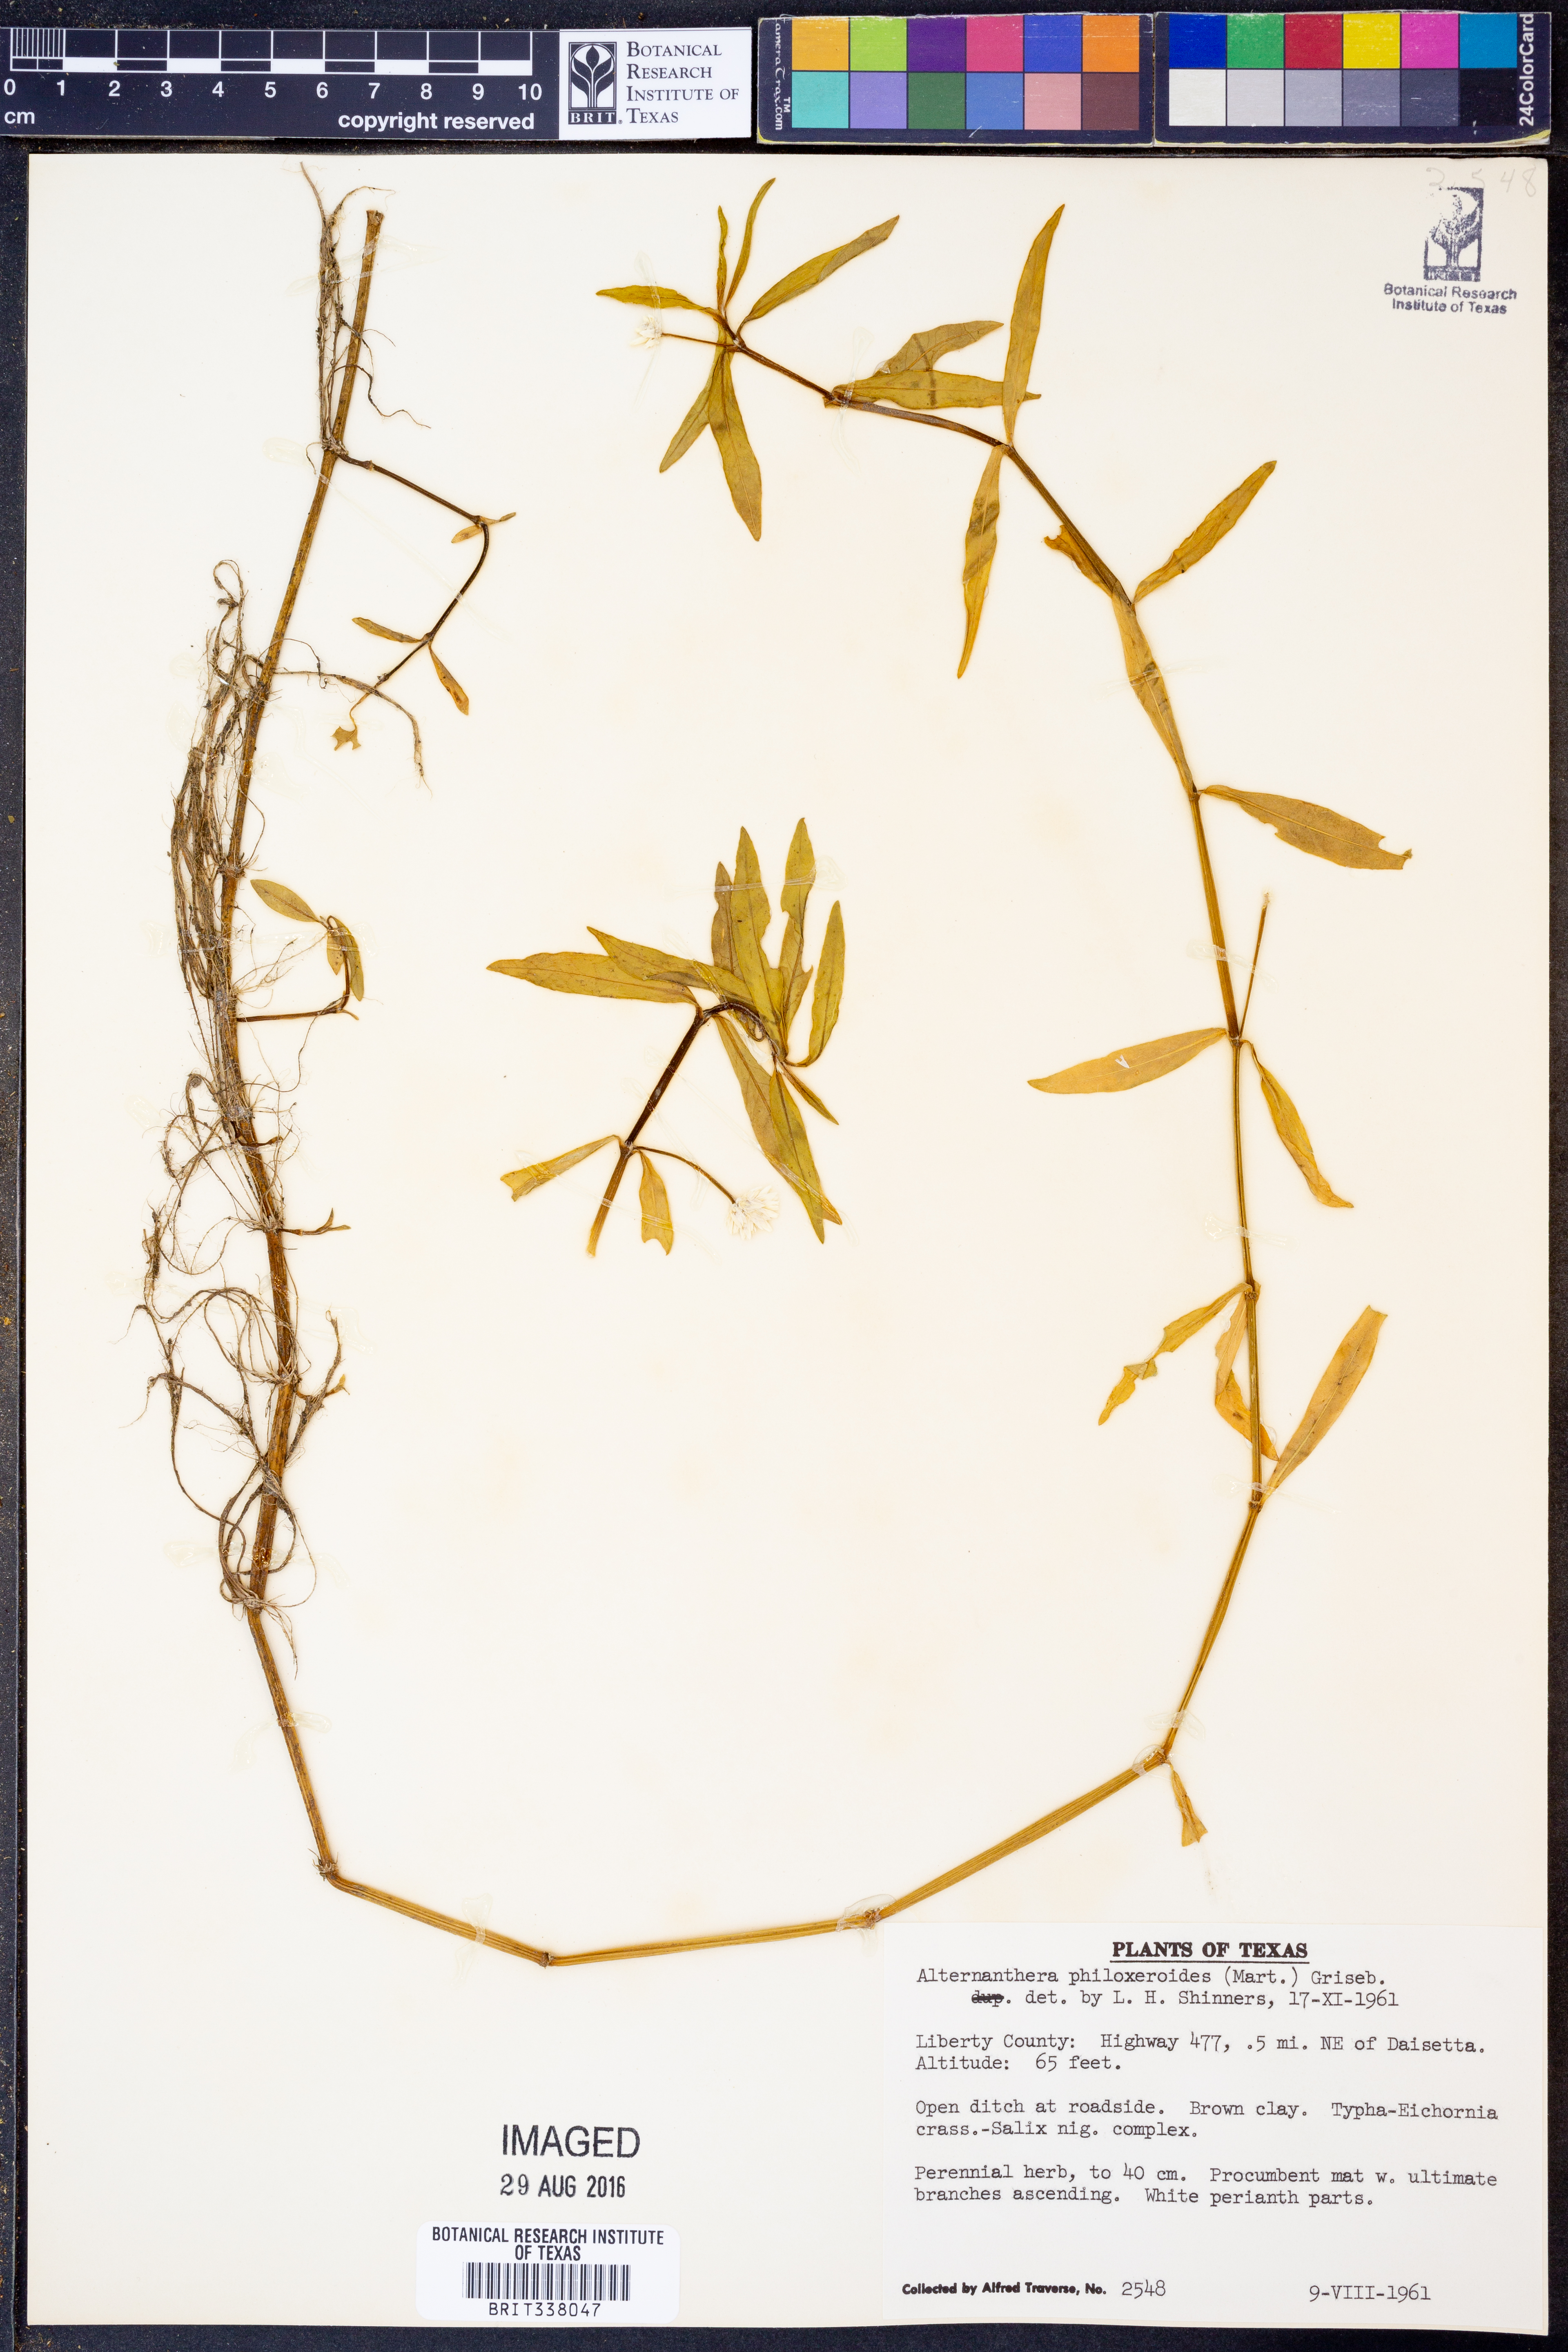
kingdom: Plantae
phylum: Tracheophyta
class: Magnoliopsida
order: Caryophyllales
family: Amaranthaceae
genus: Alternanthera
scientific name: Alternanthera philoxeroides
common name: Alligatorweed
